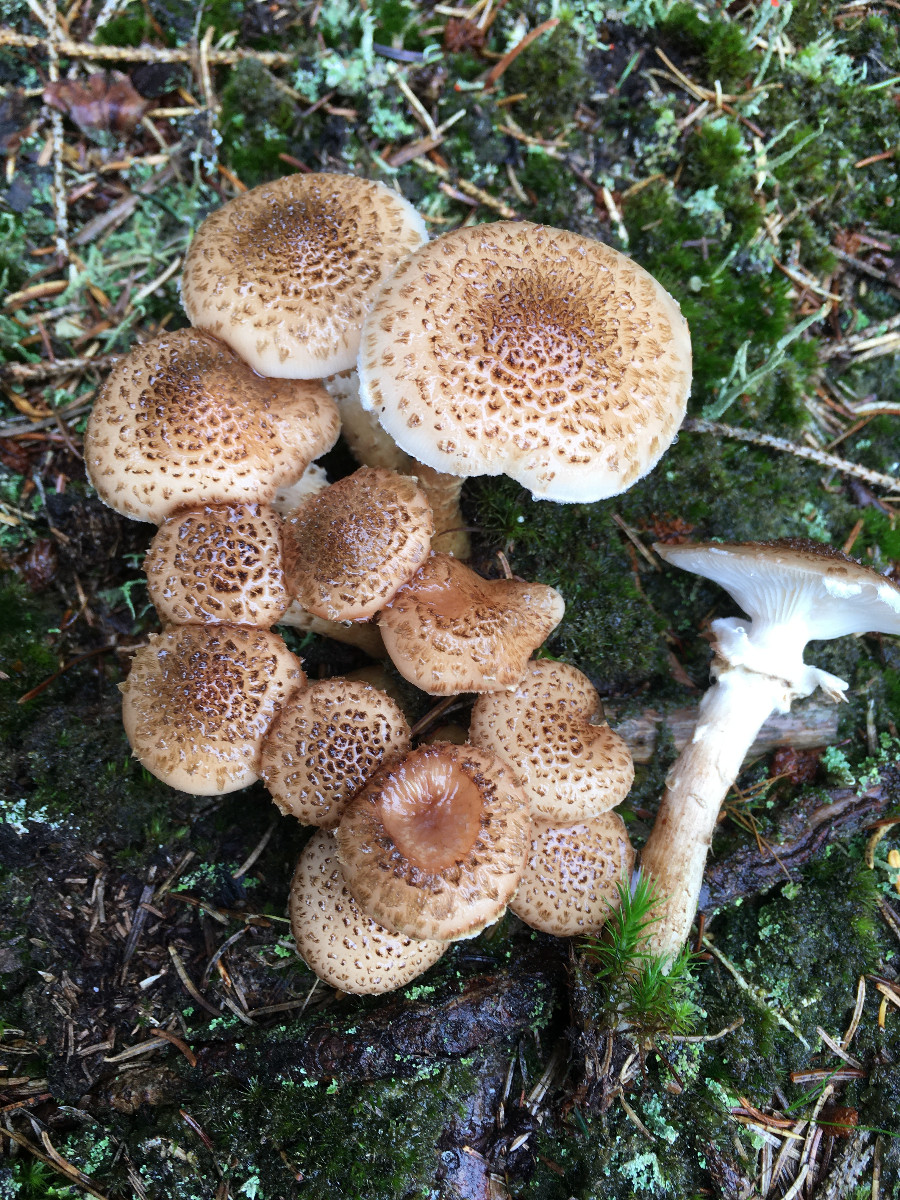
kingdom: Fungi
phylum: Basidiomycota
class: Agaricomycetes
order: Agaricales
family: Physalacriaceae
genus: Armillaria
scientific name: Armillaria ostoyae
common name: mørk honningsvamp
